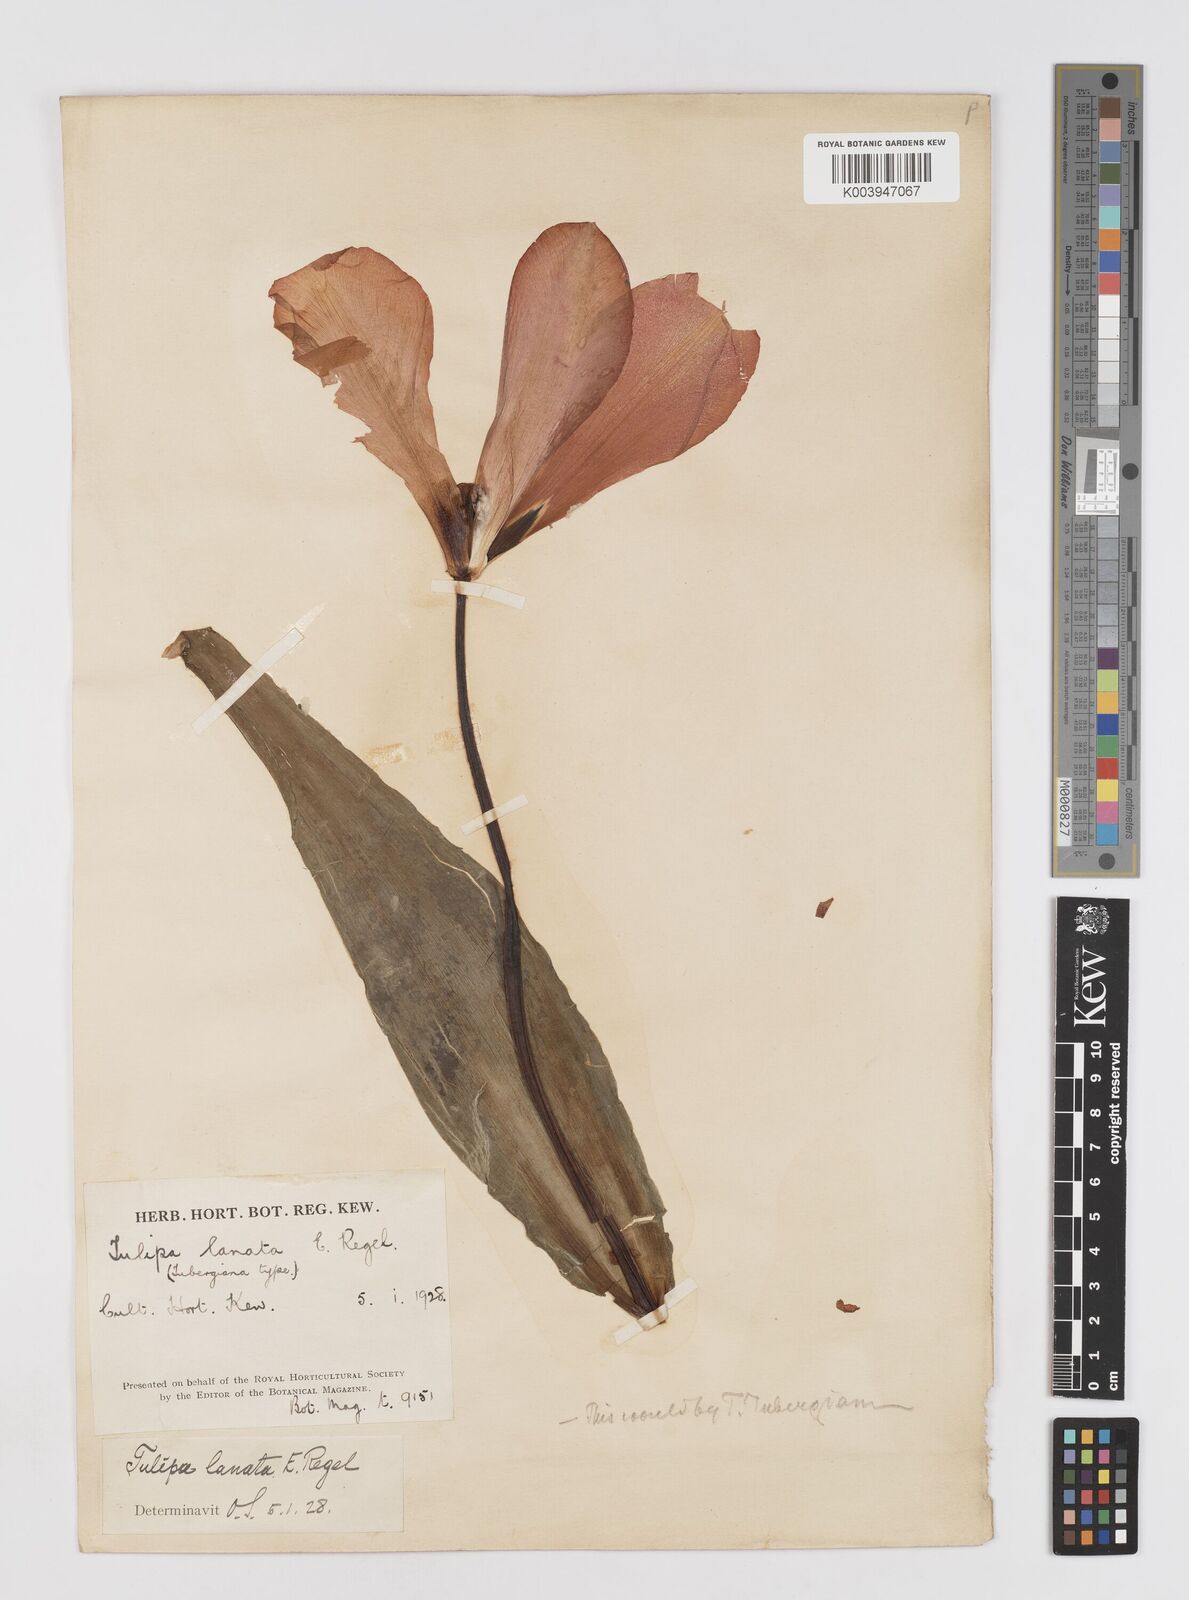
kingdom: Plantae
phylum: Tracheophyta
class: Liliopsida
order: Liliales
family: Liliaceae
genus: Tulipa
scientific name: Tulipa lanata
